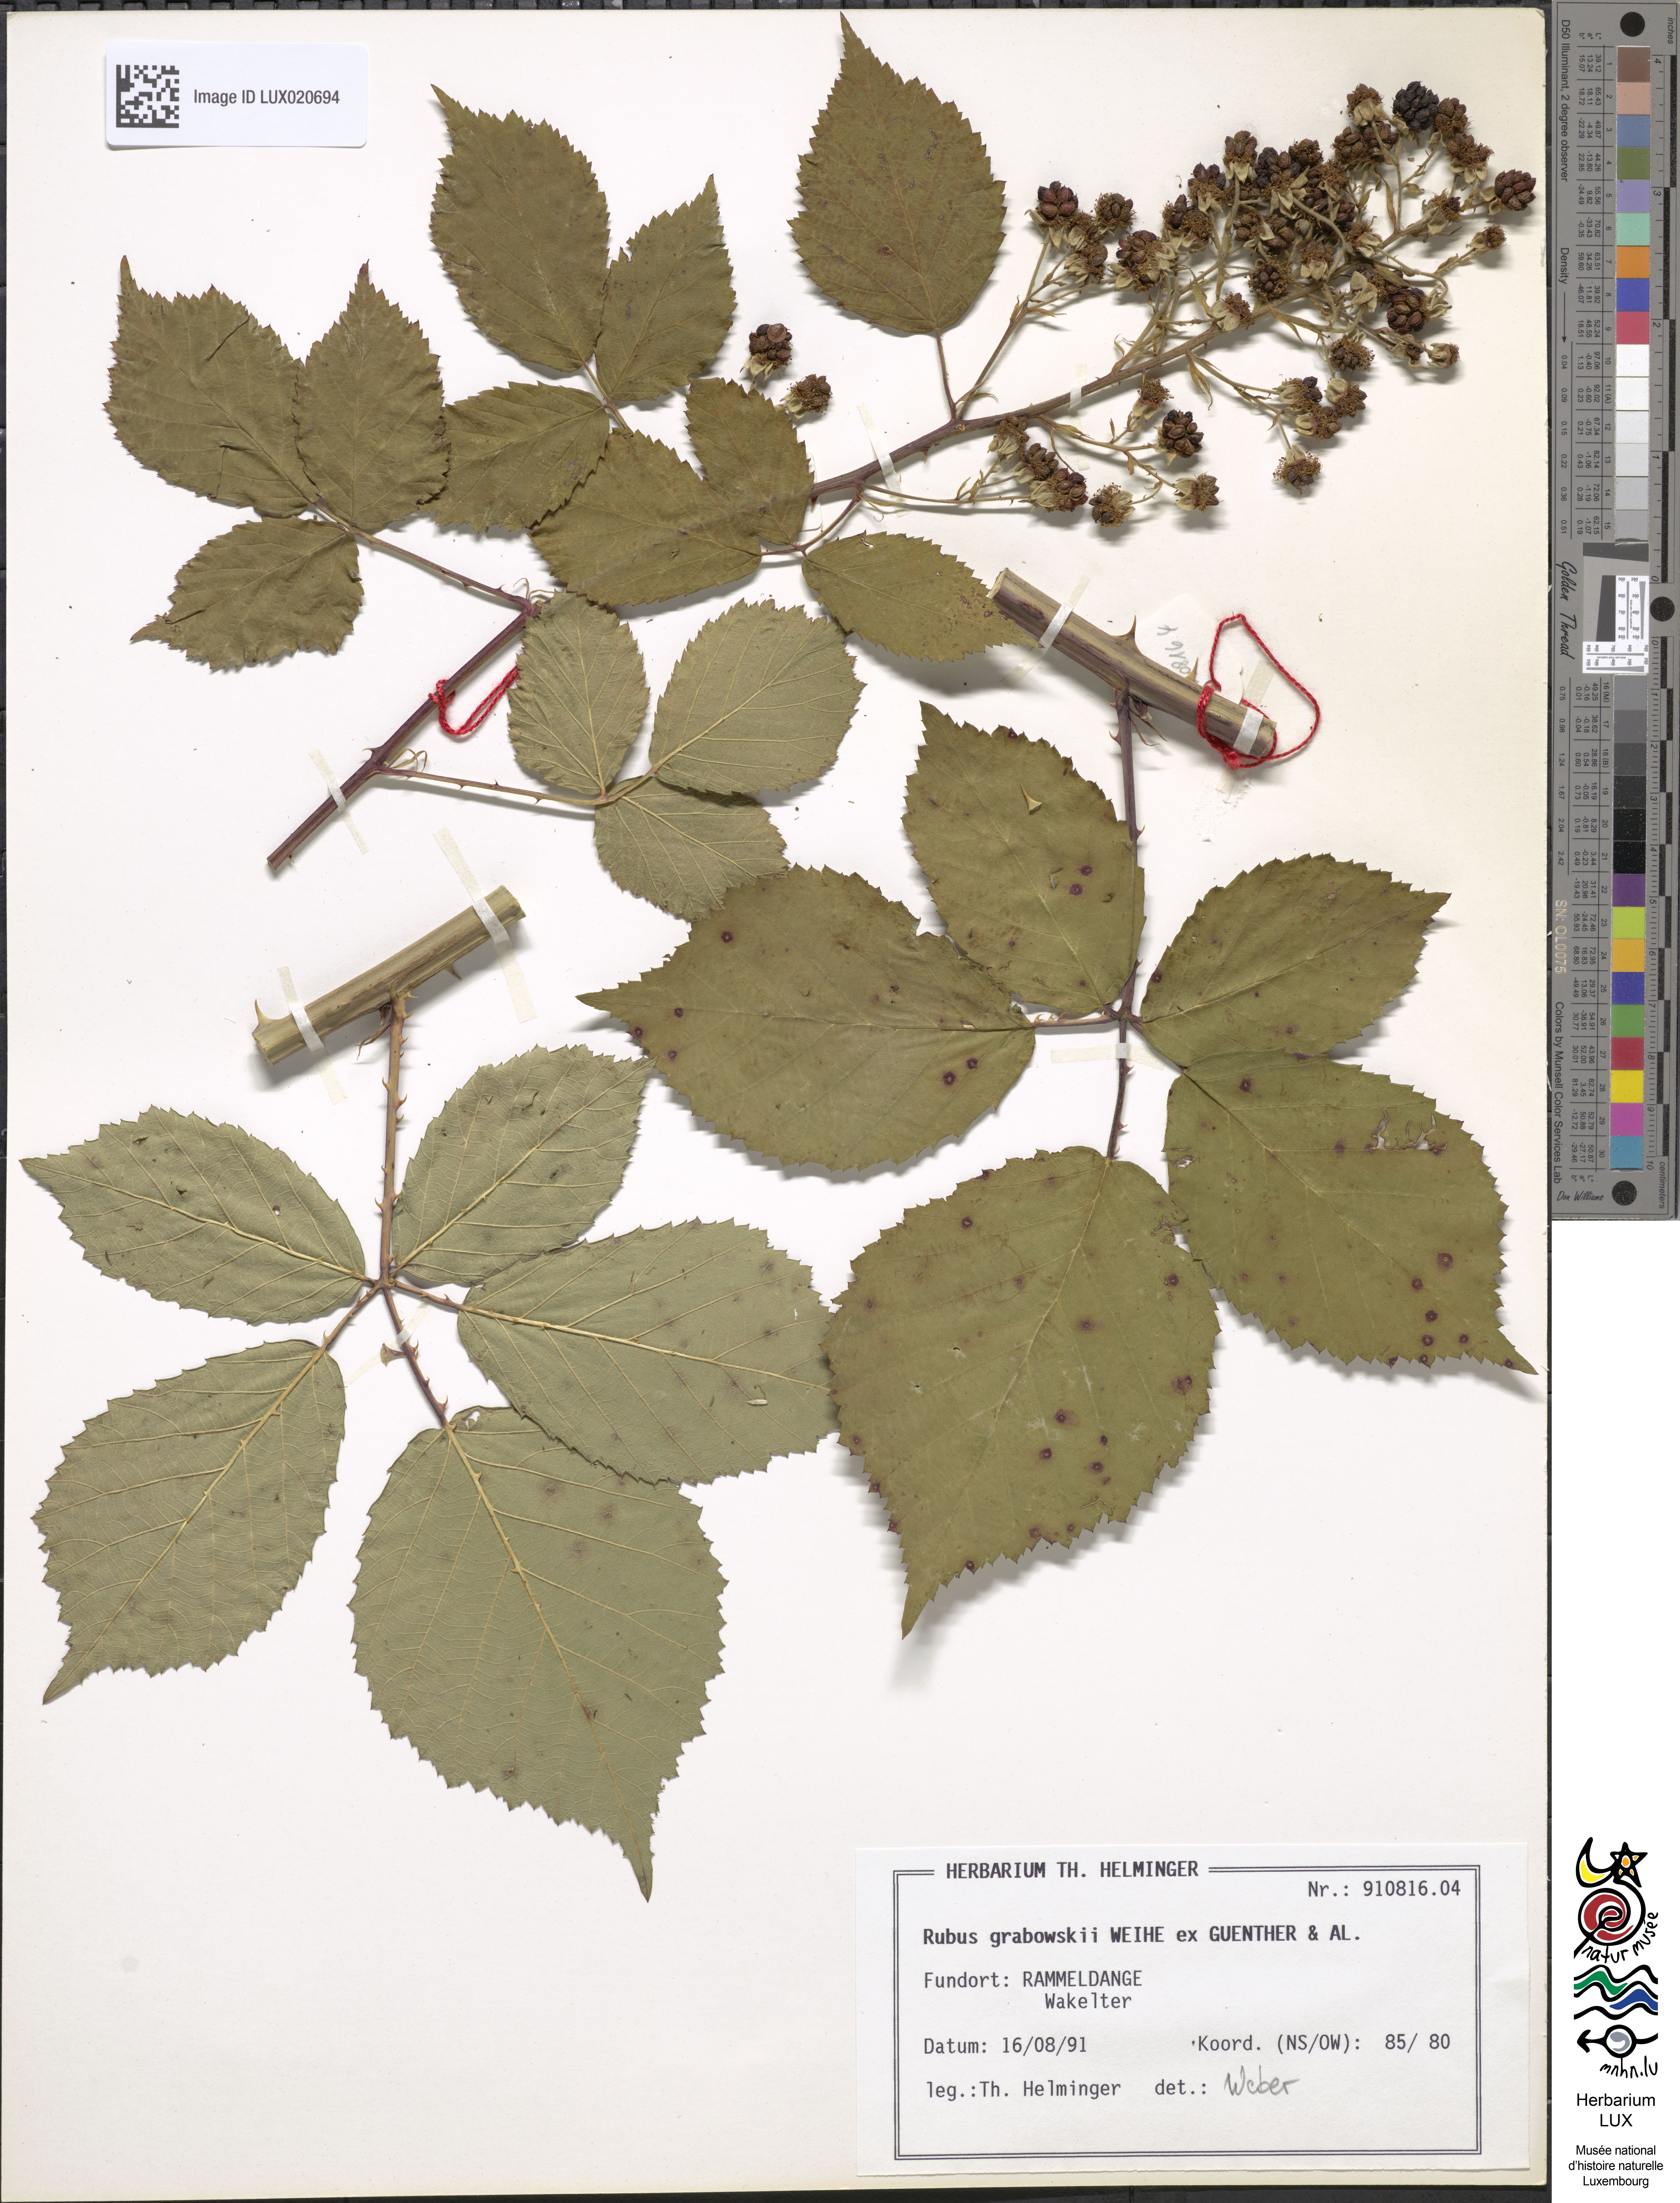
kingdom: Plantae
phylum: Tracheophyta
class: Magnoliopsida
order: Rosales
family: Rosaceae
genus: Rubus
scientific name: Rubus grabowskii
